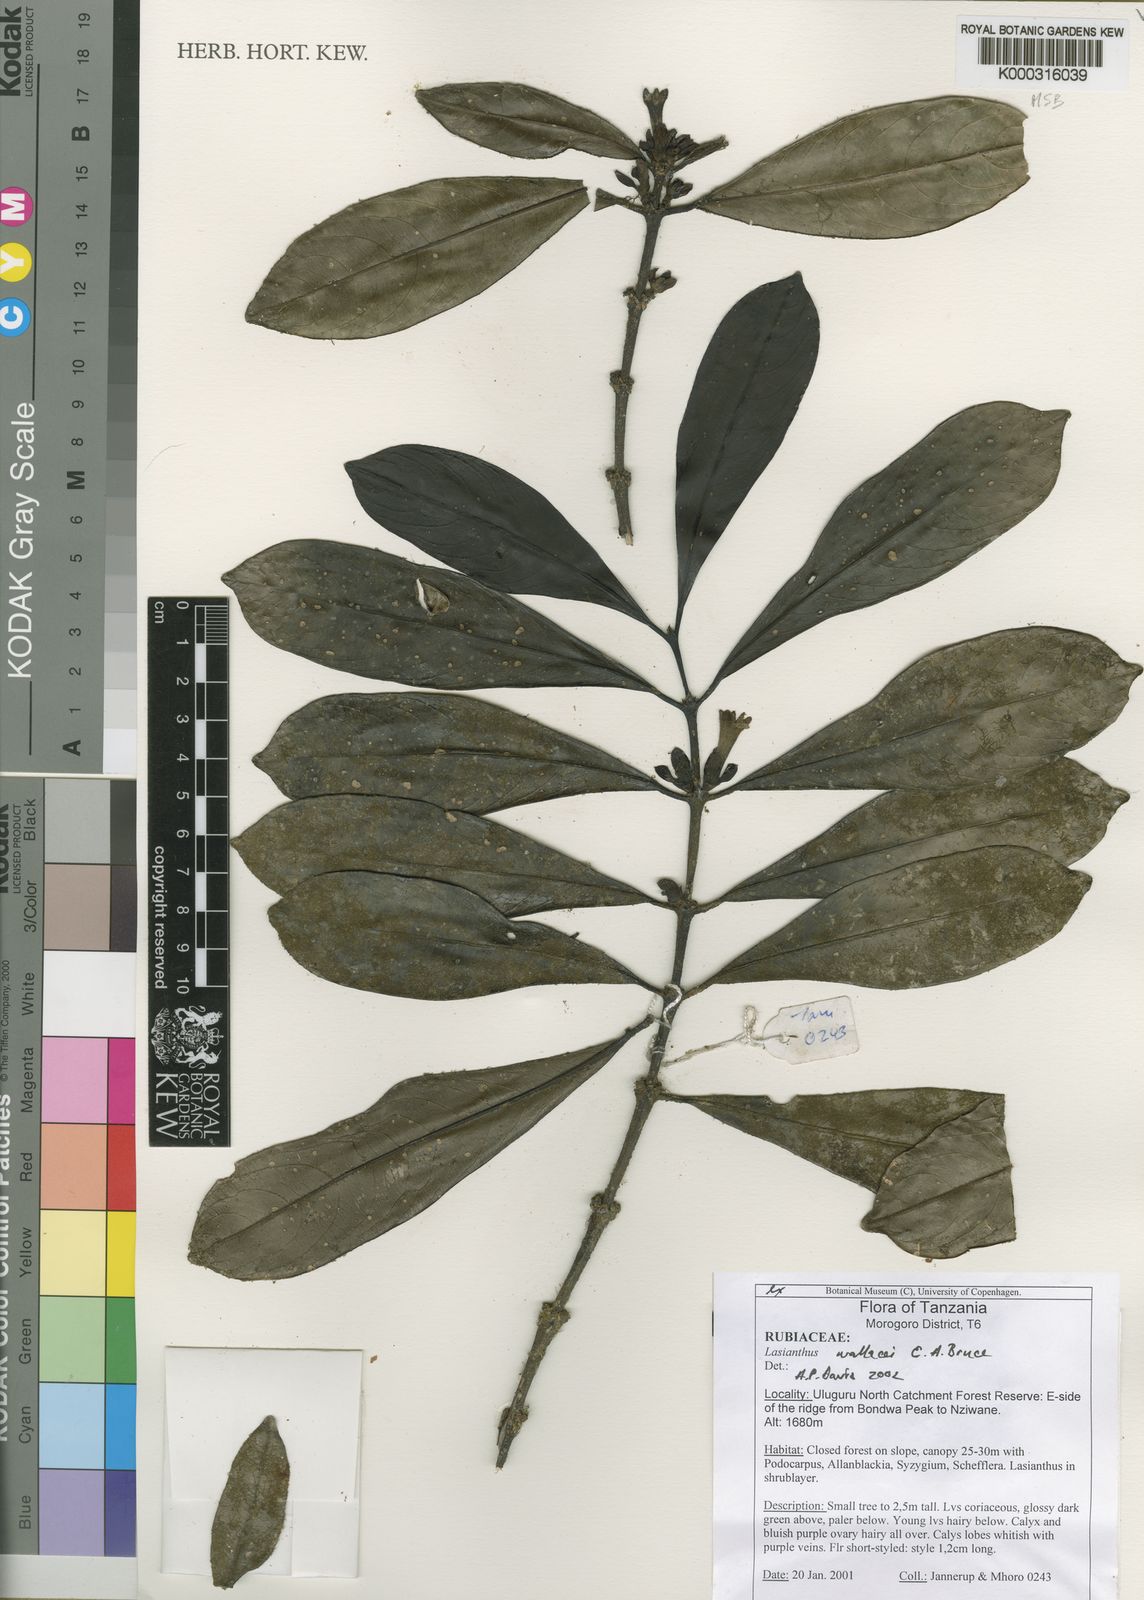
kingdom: Plantae
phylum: Tracheophyta
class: Magnoliopsida
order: Gentianales
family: Rubiaceae
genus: Lasianthus
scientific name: Lasianthus wallacei
